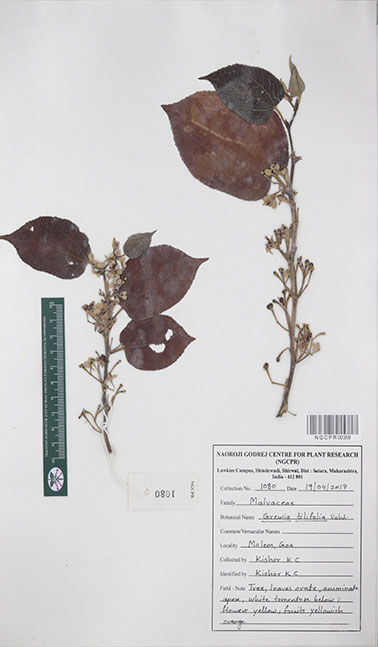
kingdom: Plantae
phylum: Tracheophyta
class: Magnoliopsida
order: Malvales
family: Malvaceae
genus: Grewia
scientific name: Grewia tiliifolia
